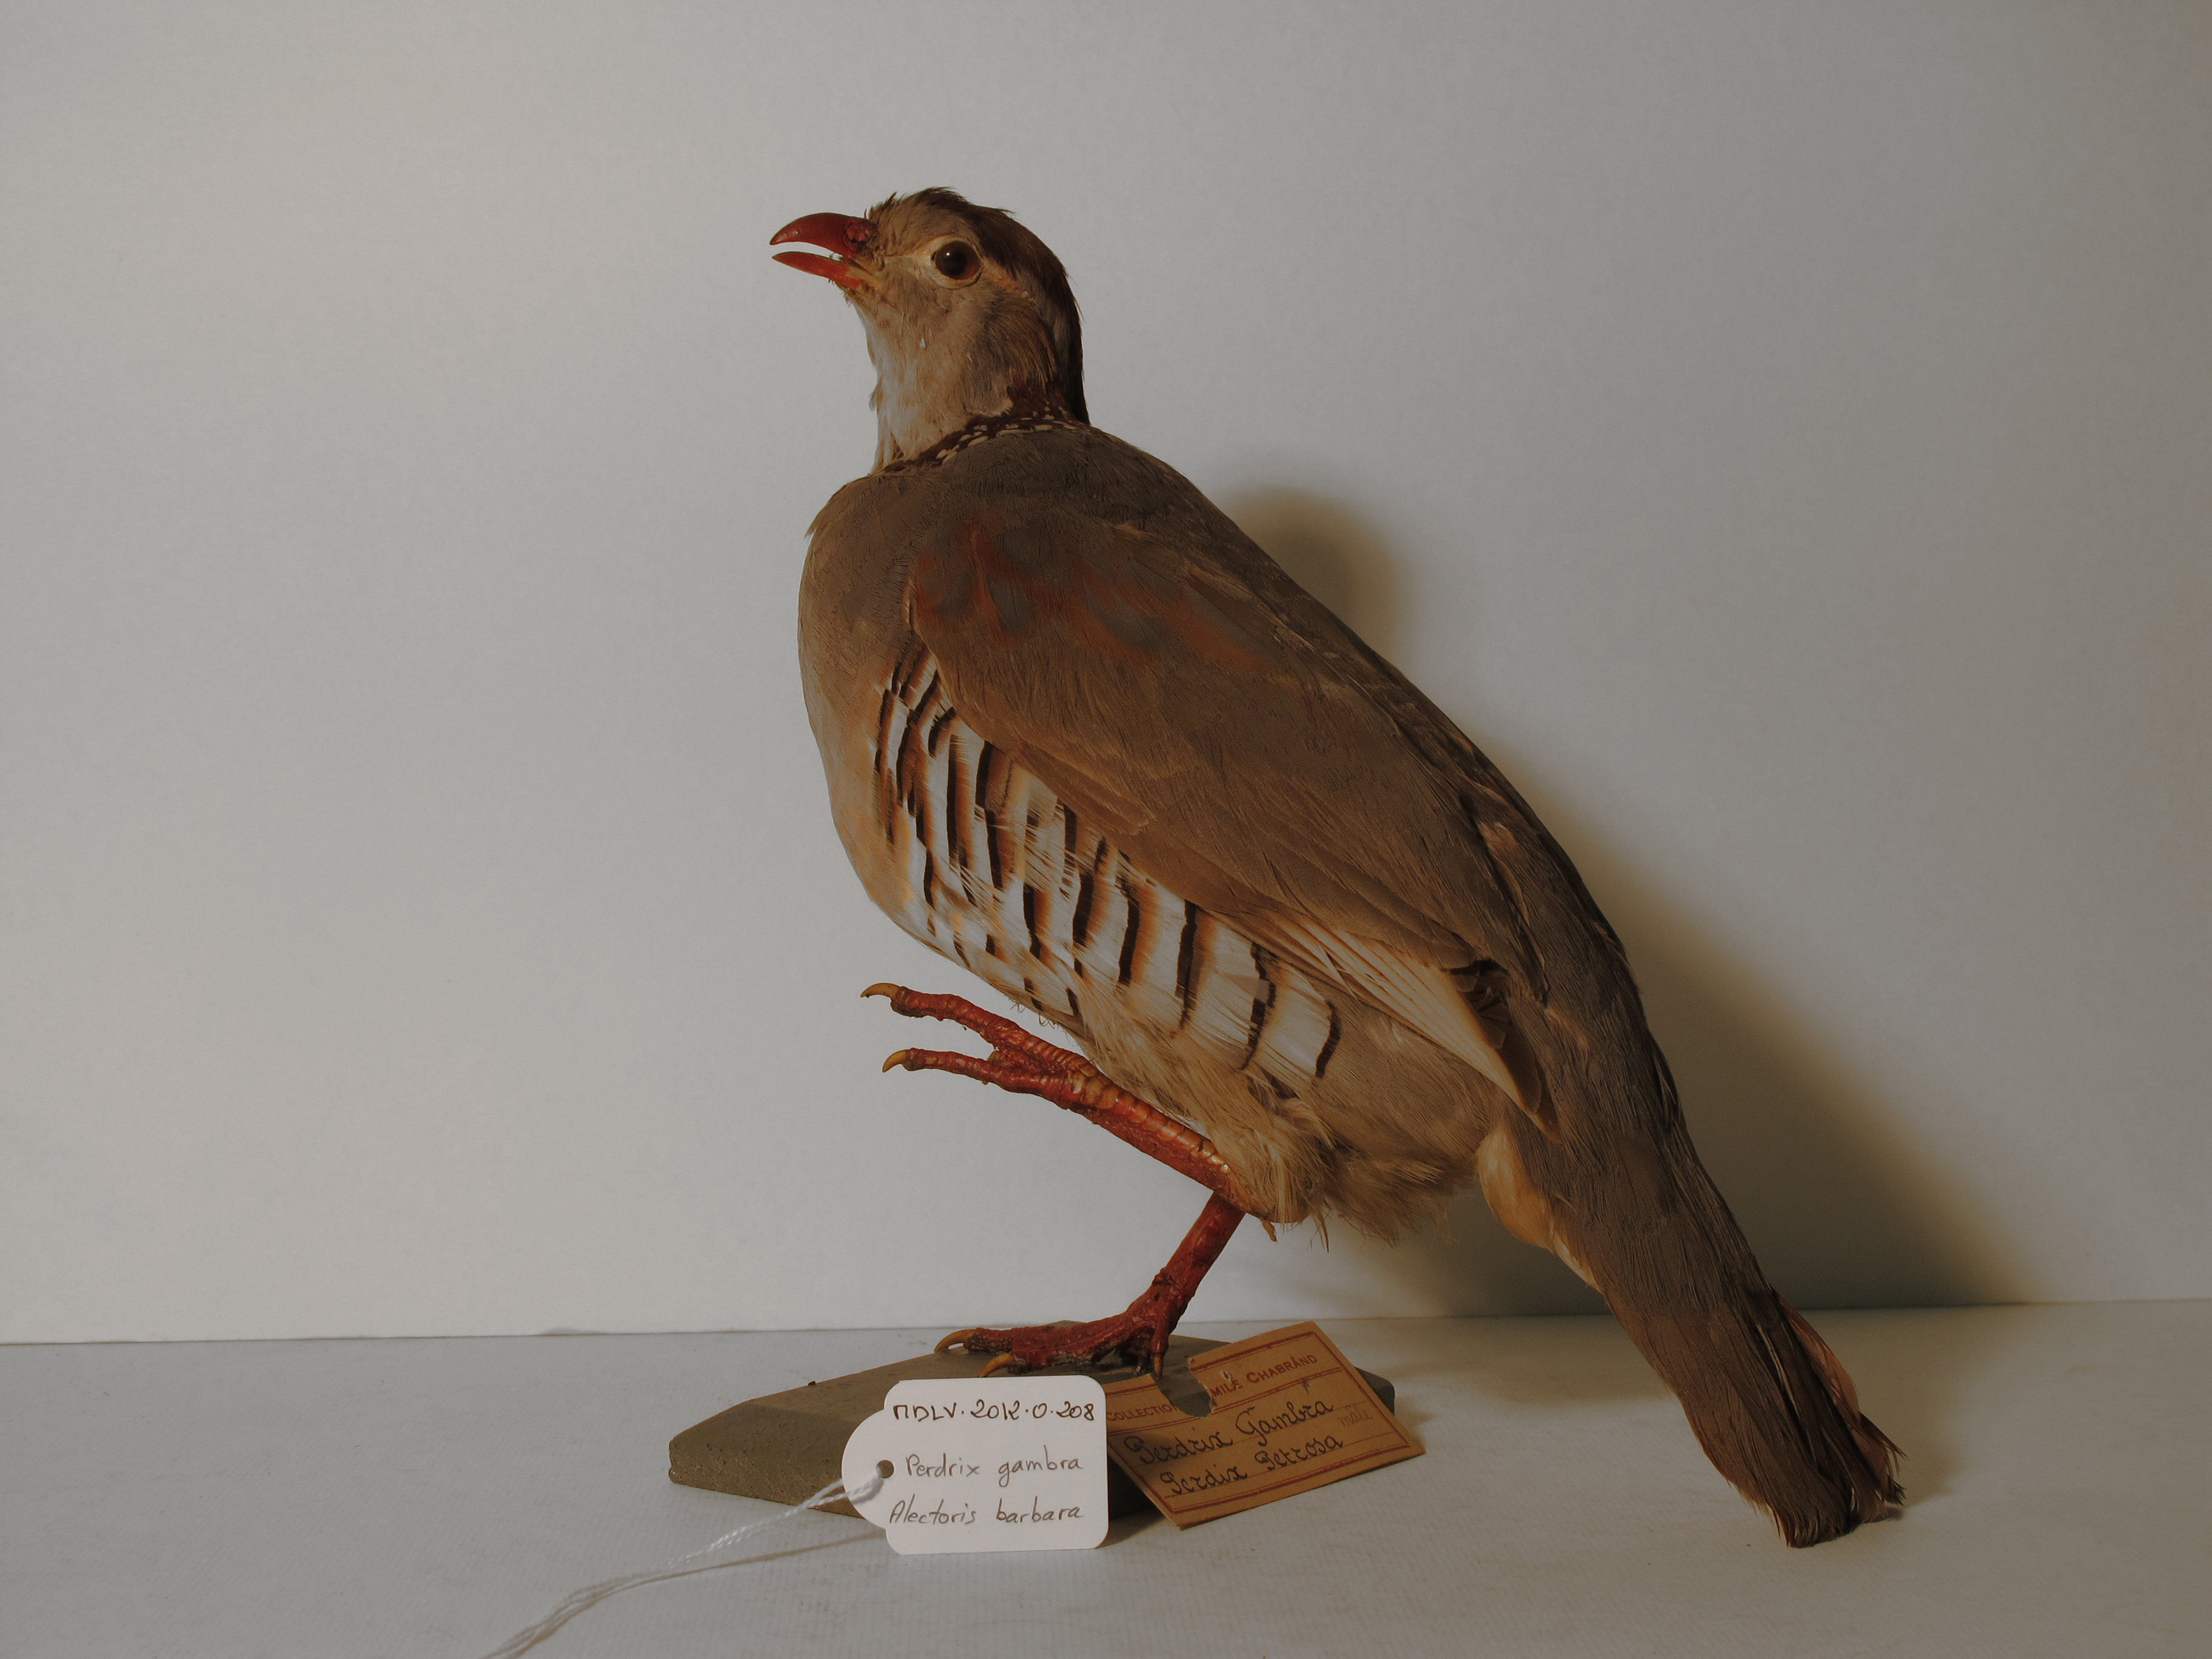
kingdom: Animalia
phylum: Chordata
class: Aves
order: Galliformes
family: Phasianidae
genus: Alectoris
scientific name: Alectoris barbara
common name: Barbary Partridge
